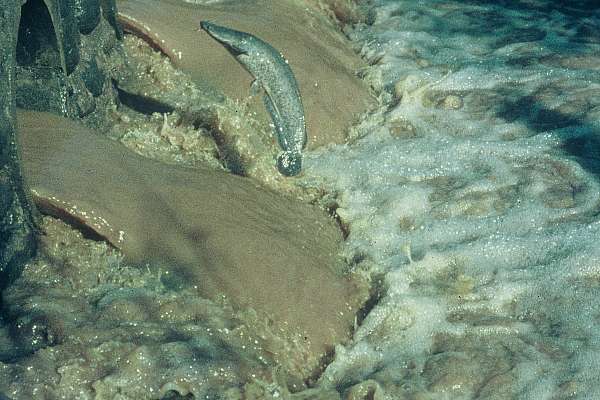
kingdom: Animalia
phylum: Chordata
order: Siluriformes
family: Clariidae
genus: Clarias
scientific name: Clarias gariepinus
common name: African catfish
